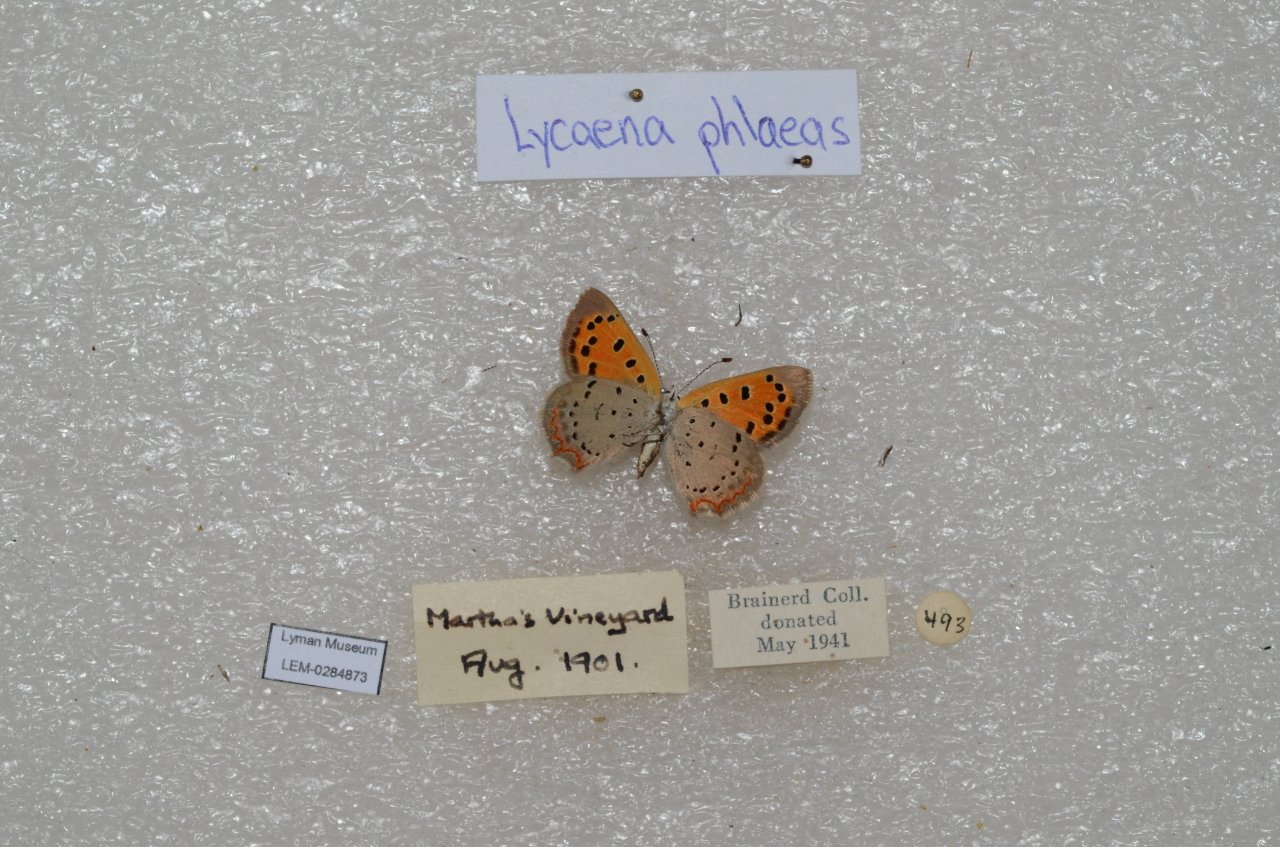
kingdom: Animalia
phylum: Arthropoda
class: Insecta
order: Lepidoptera
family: Lycaenidae
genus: Lycaena
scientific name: Lycaena phlaeas
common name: American Copper
